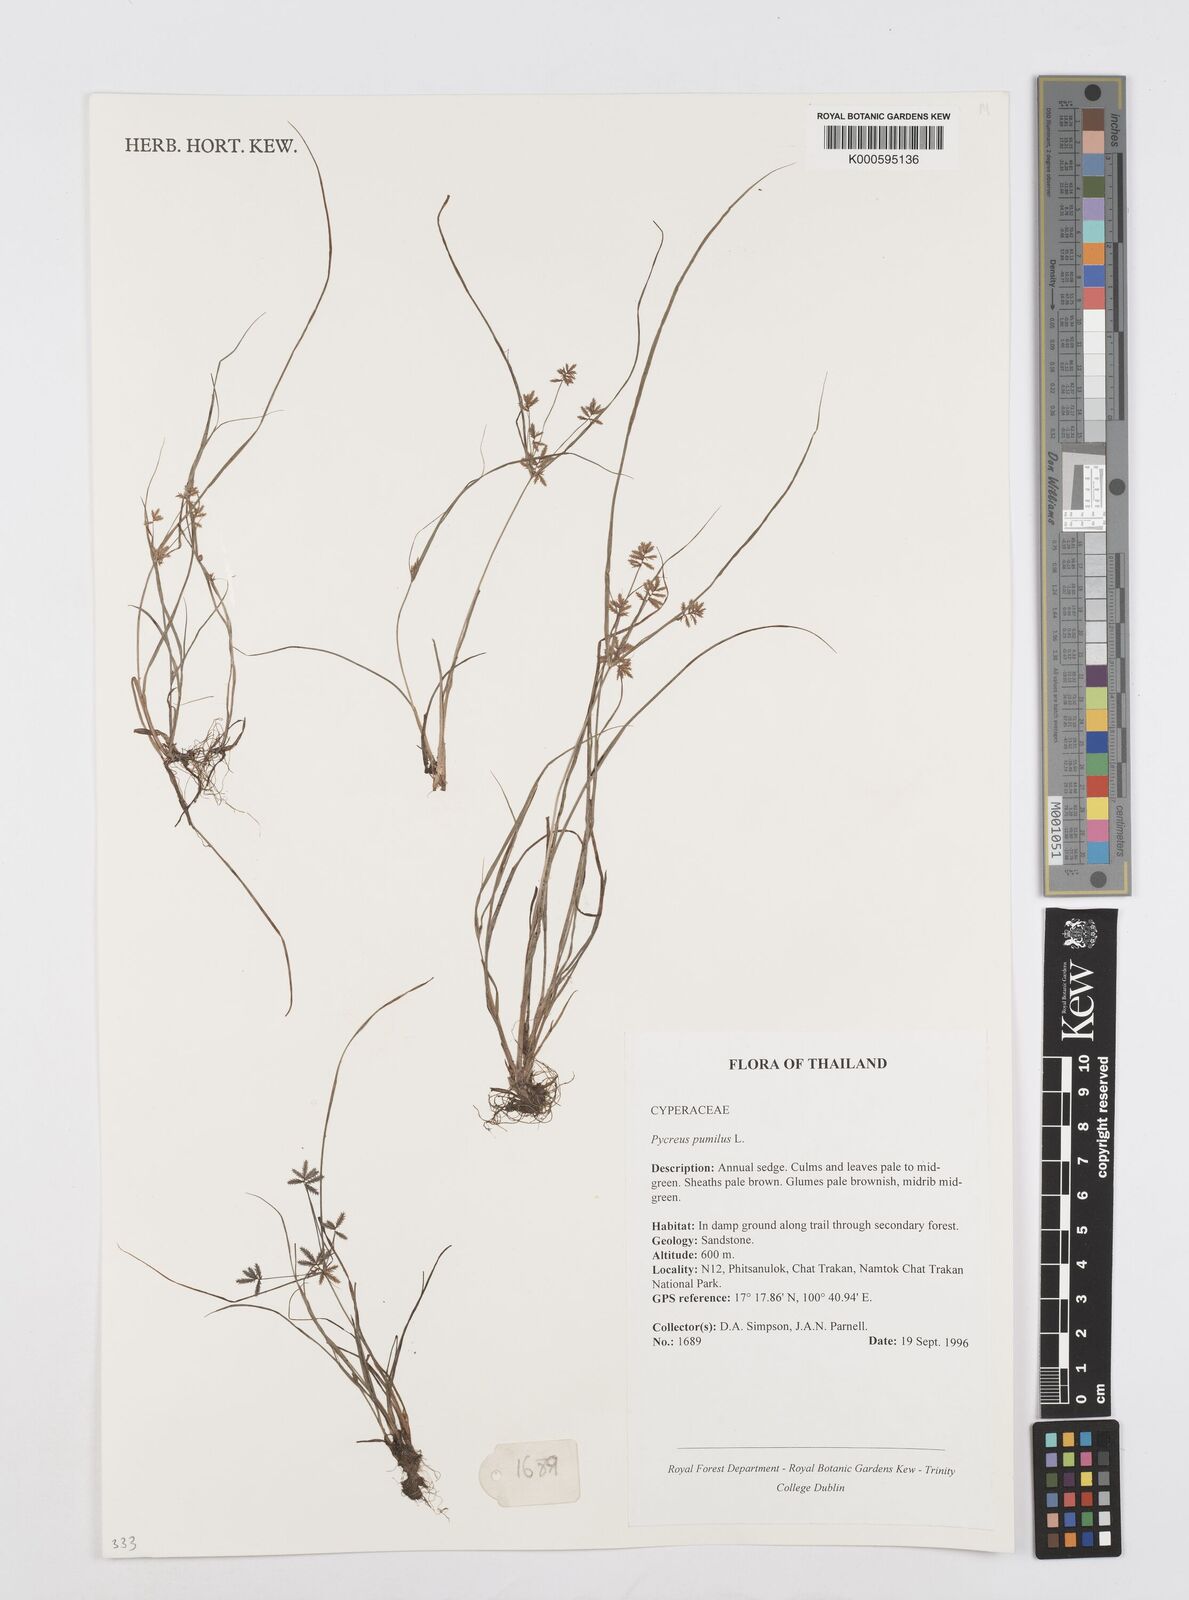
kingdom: Plantae
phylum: Tracheophyta
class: Liliopsida
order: Poales
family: Cyperaceae
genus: Cyperus
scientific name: Cyperus pumilus
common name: Low flatsedge
